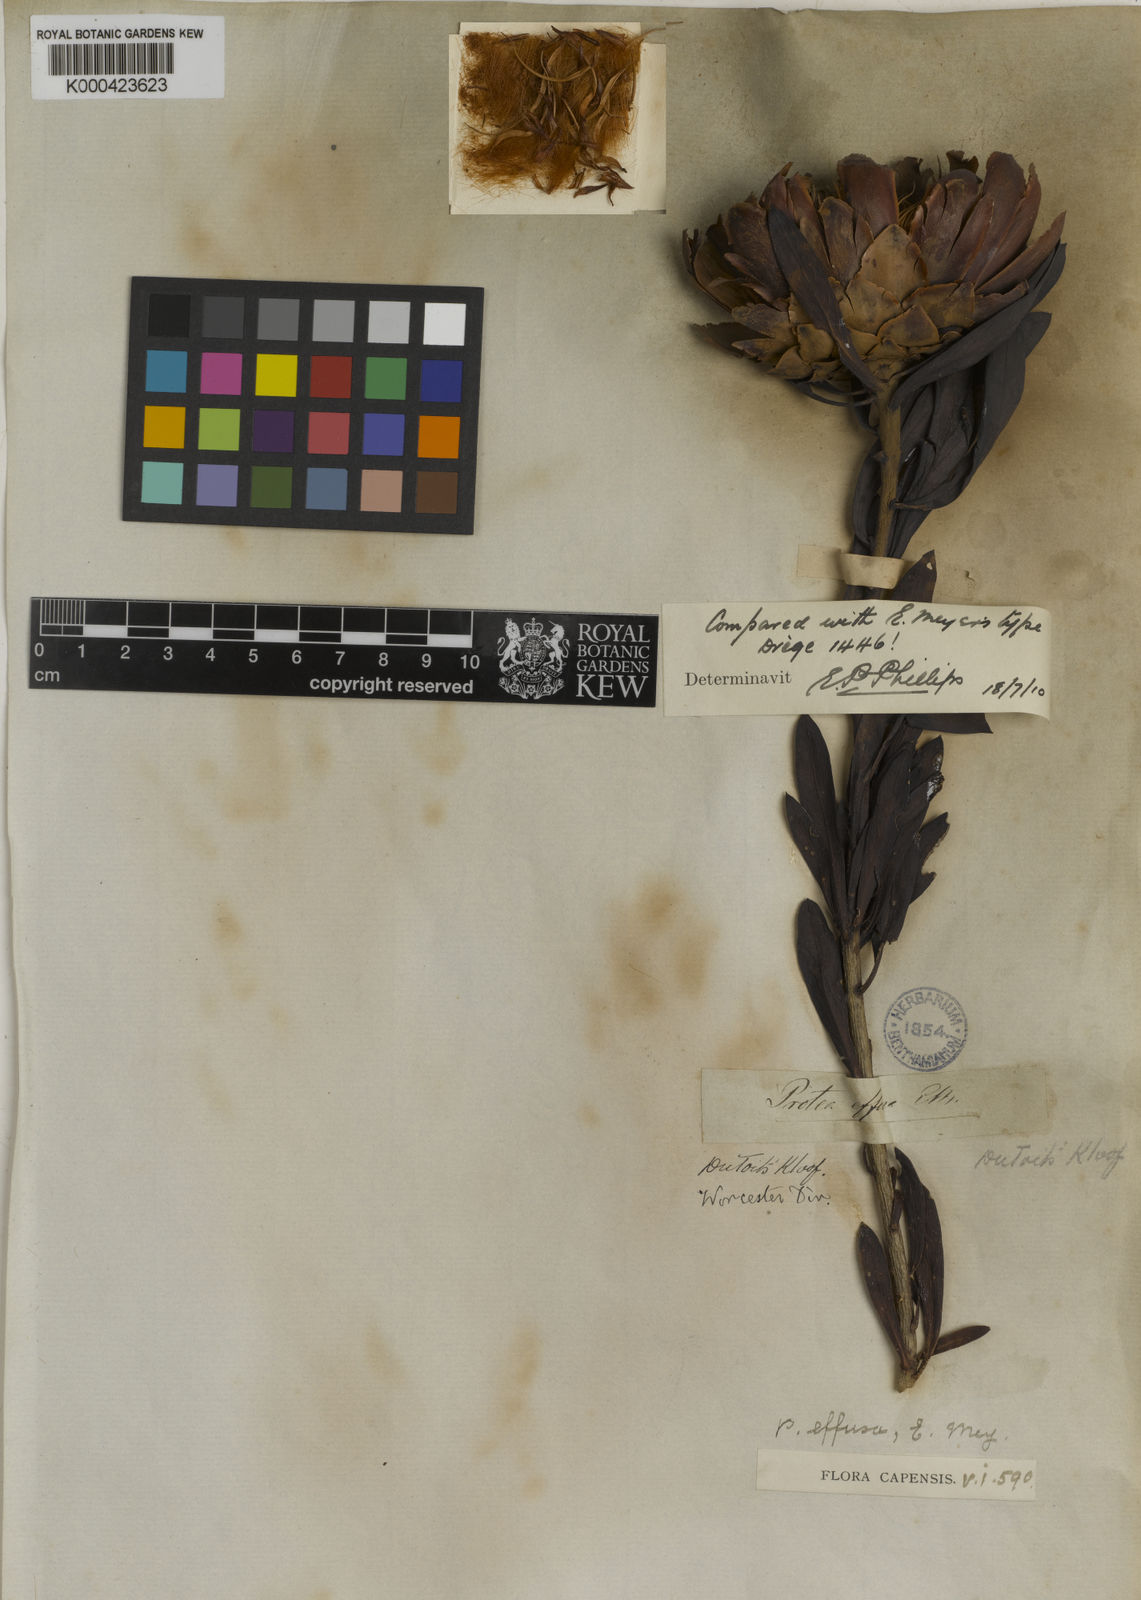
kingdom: Plantae
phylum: Tracheophyta
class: Magnoliopsida
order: Proteales
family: Proteaceae
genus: Protea
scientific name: Protea effusa
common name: Scarlet sugarbush
